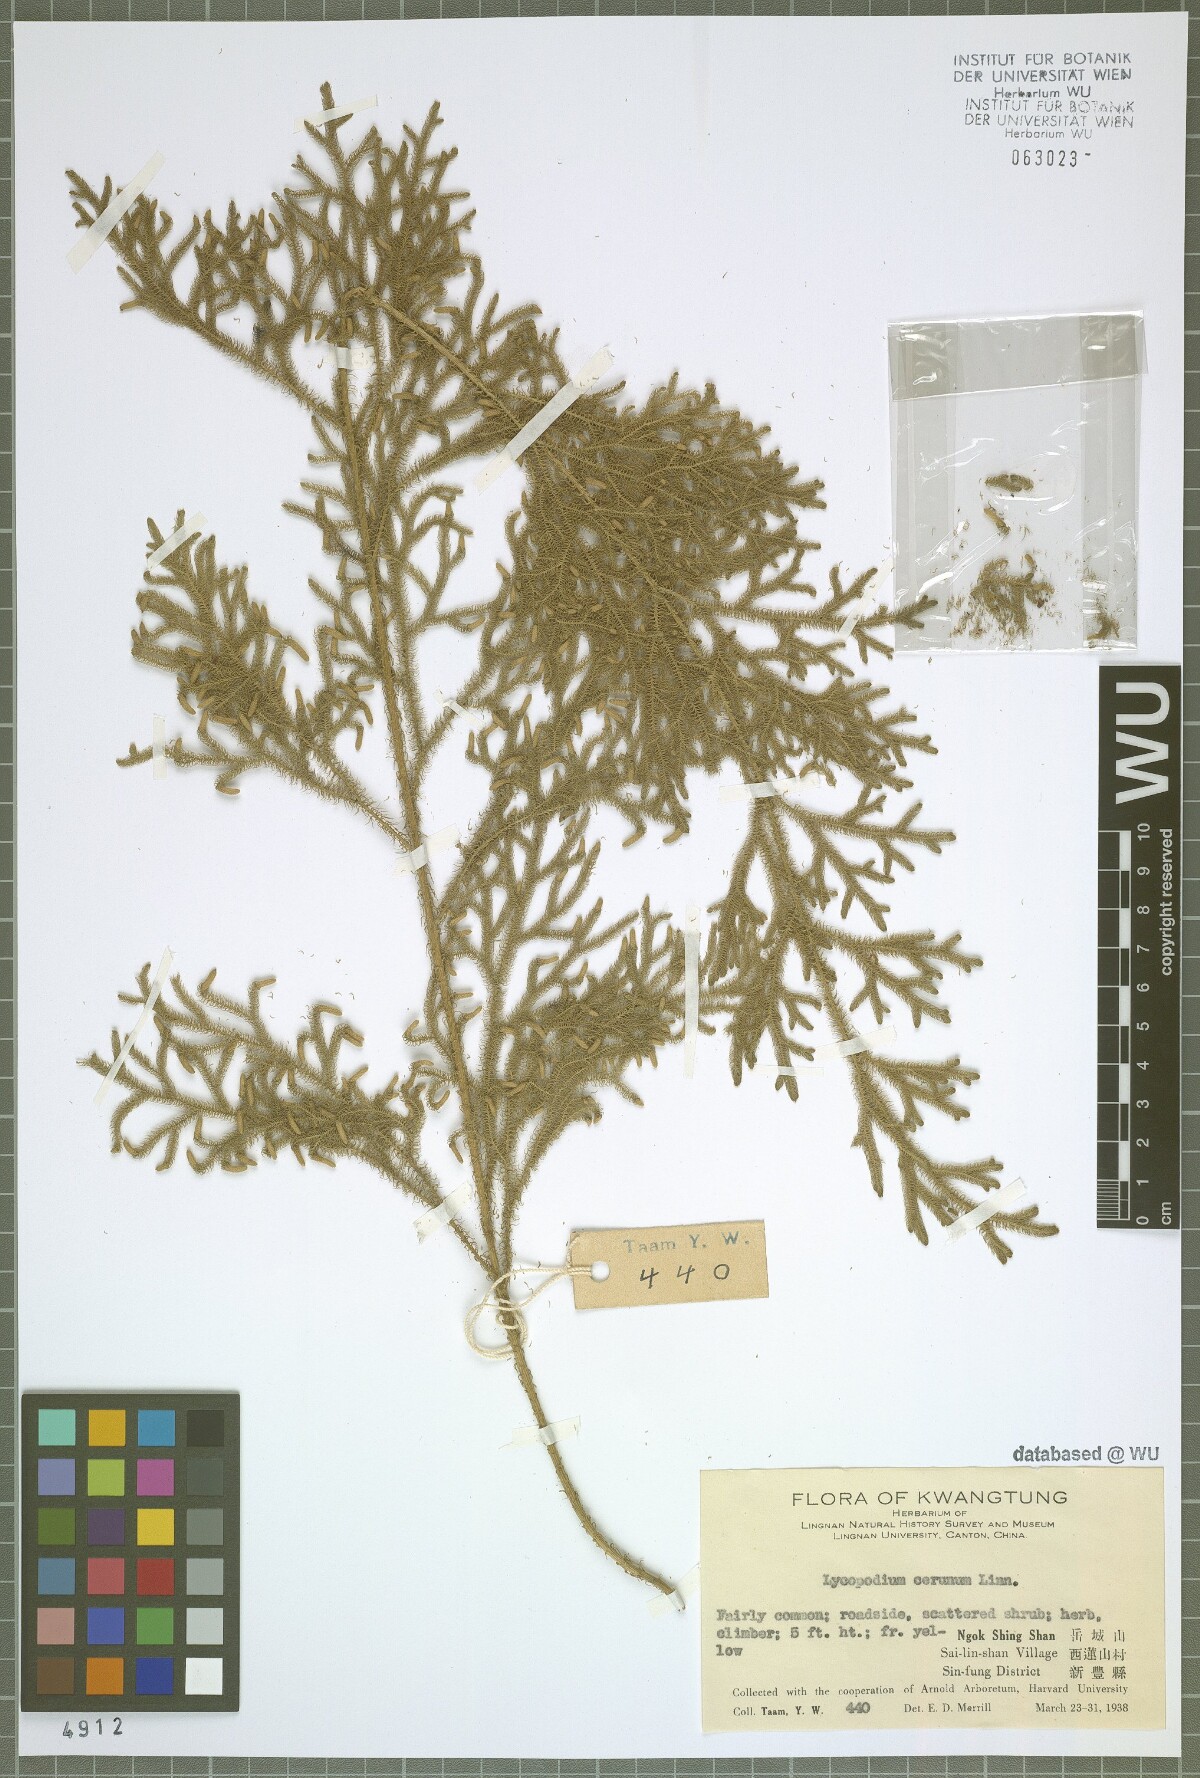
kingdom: Plantae
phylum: Tracheophyta
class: Lycopodiopsida
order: Lycopodiales
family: Lycopodiaceae
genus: Palhinhaea
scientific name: Palhinhaea cernua
